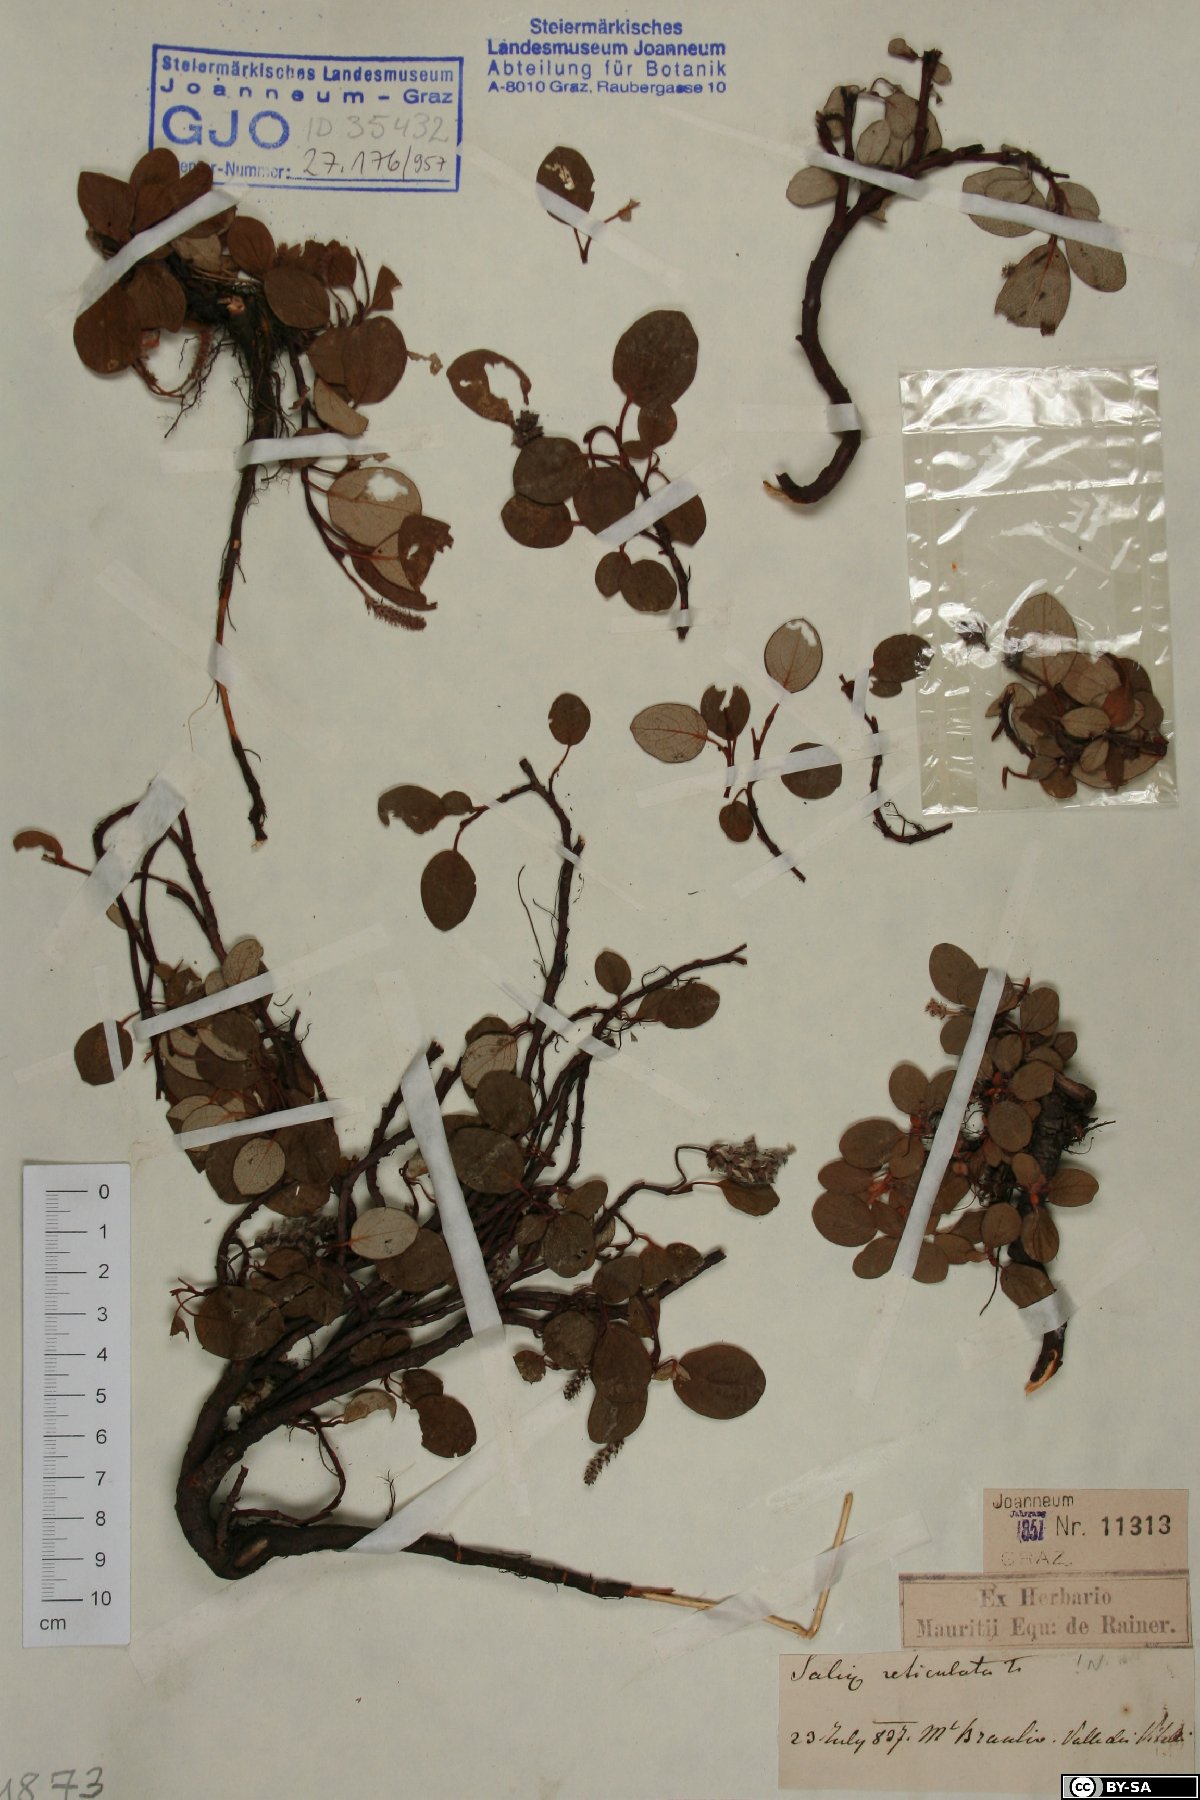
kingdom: Plantae
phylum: Tracheophyta
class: Magnoliopsida
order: Malpighiales
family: Salicaceae
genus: Salix
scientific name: Salix reticulata
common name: Net-leaved willow
